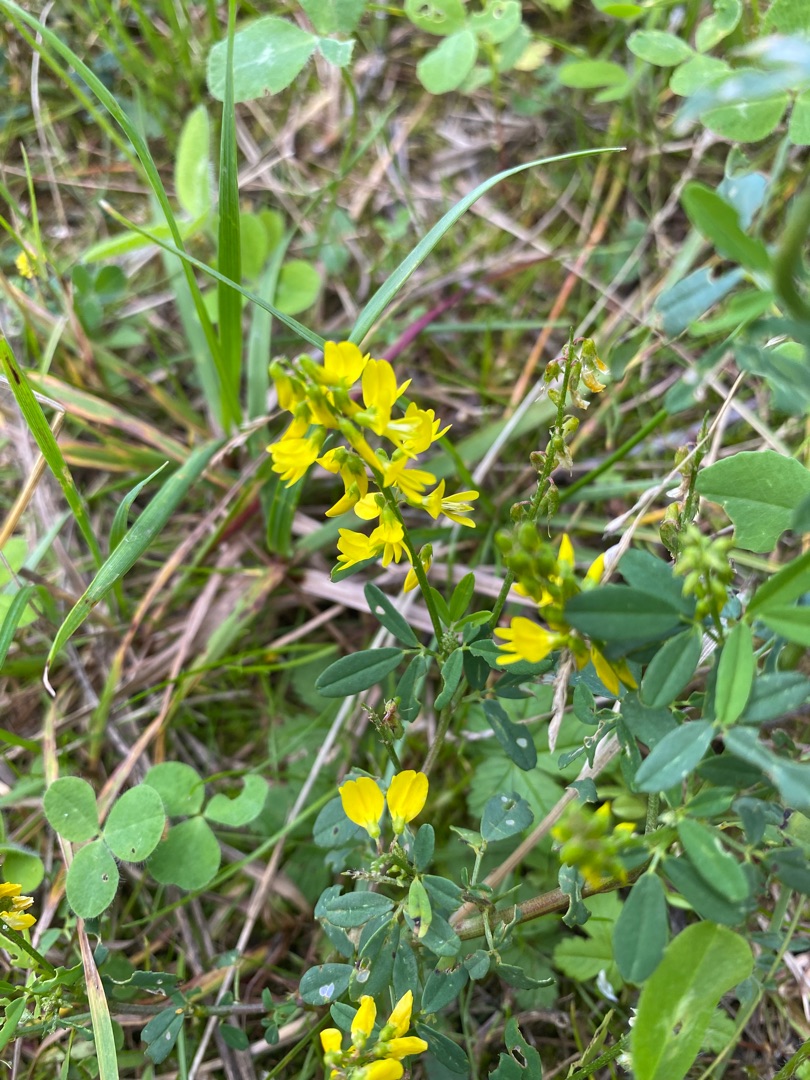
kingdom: Plantae
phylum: Tracheophyta
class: Magnoliopsida
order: Fabales
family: Fabaceae
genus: Melilotus
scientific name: Melilotus altissimus
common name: Høj stenkløver
